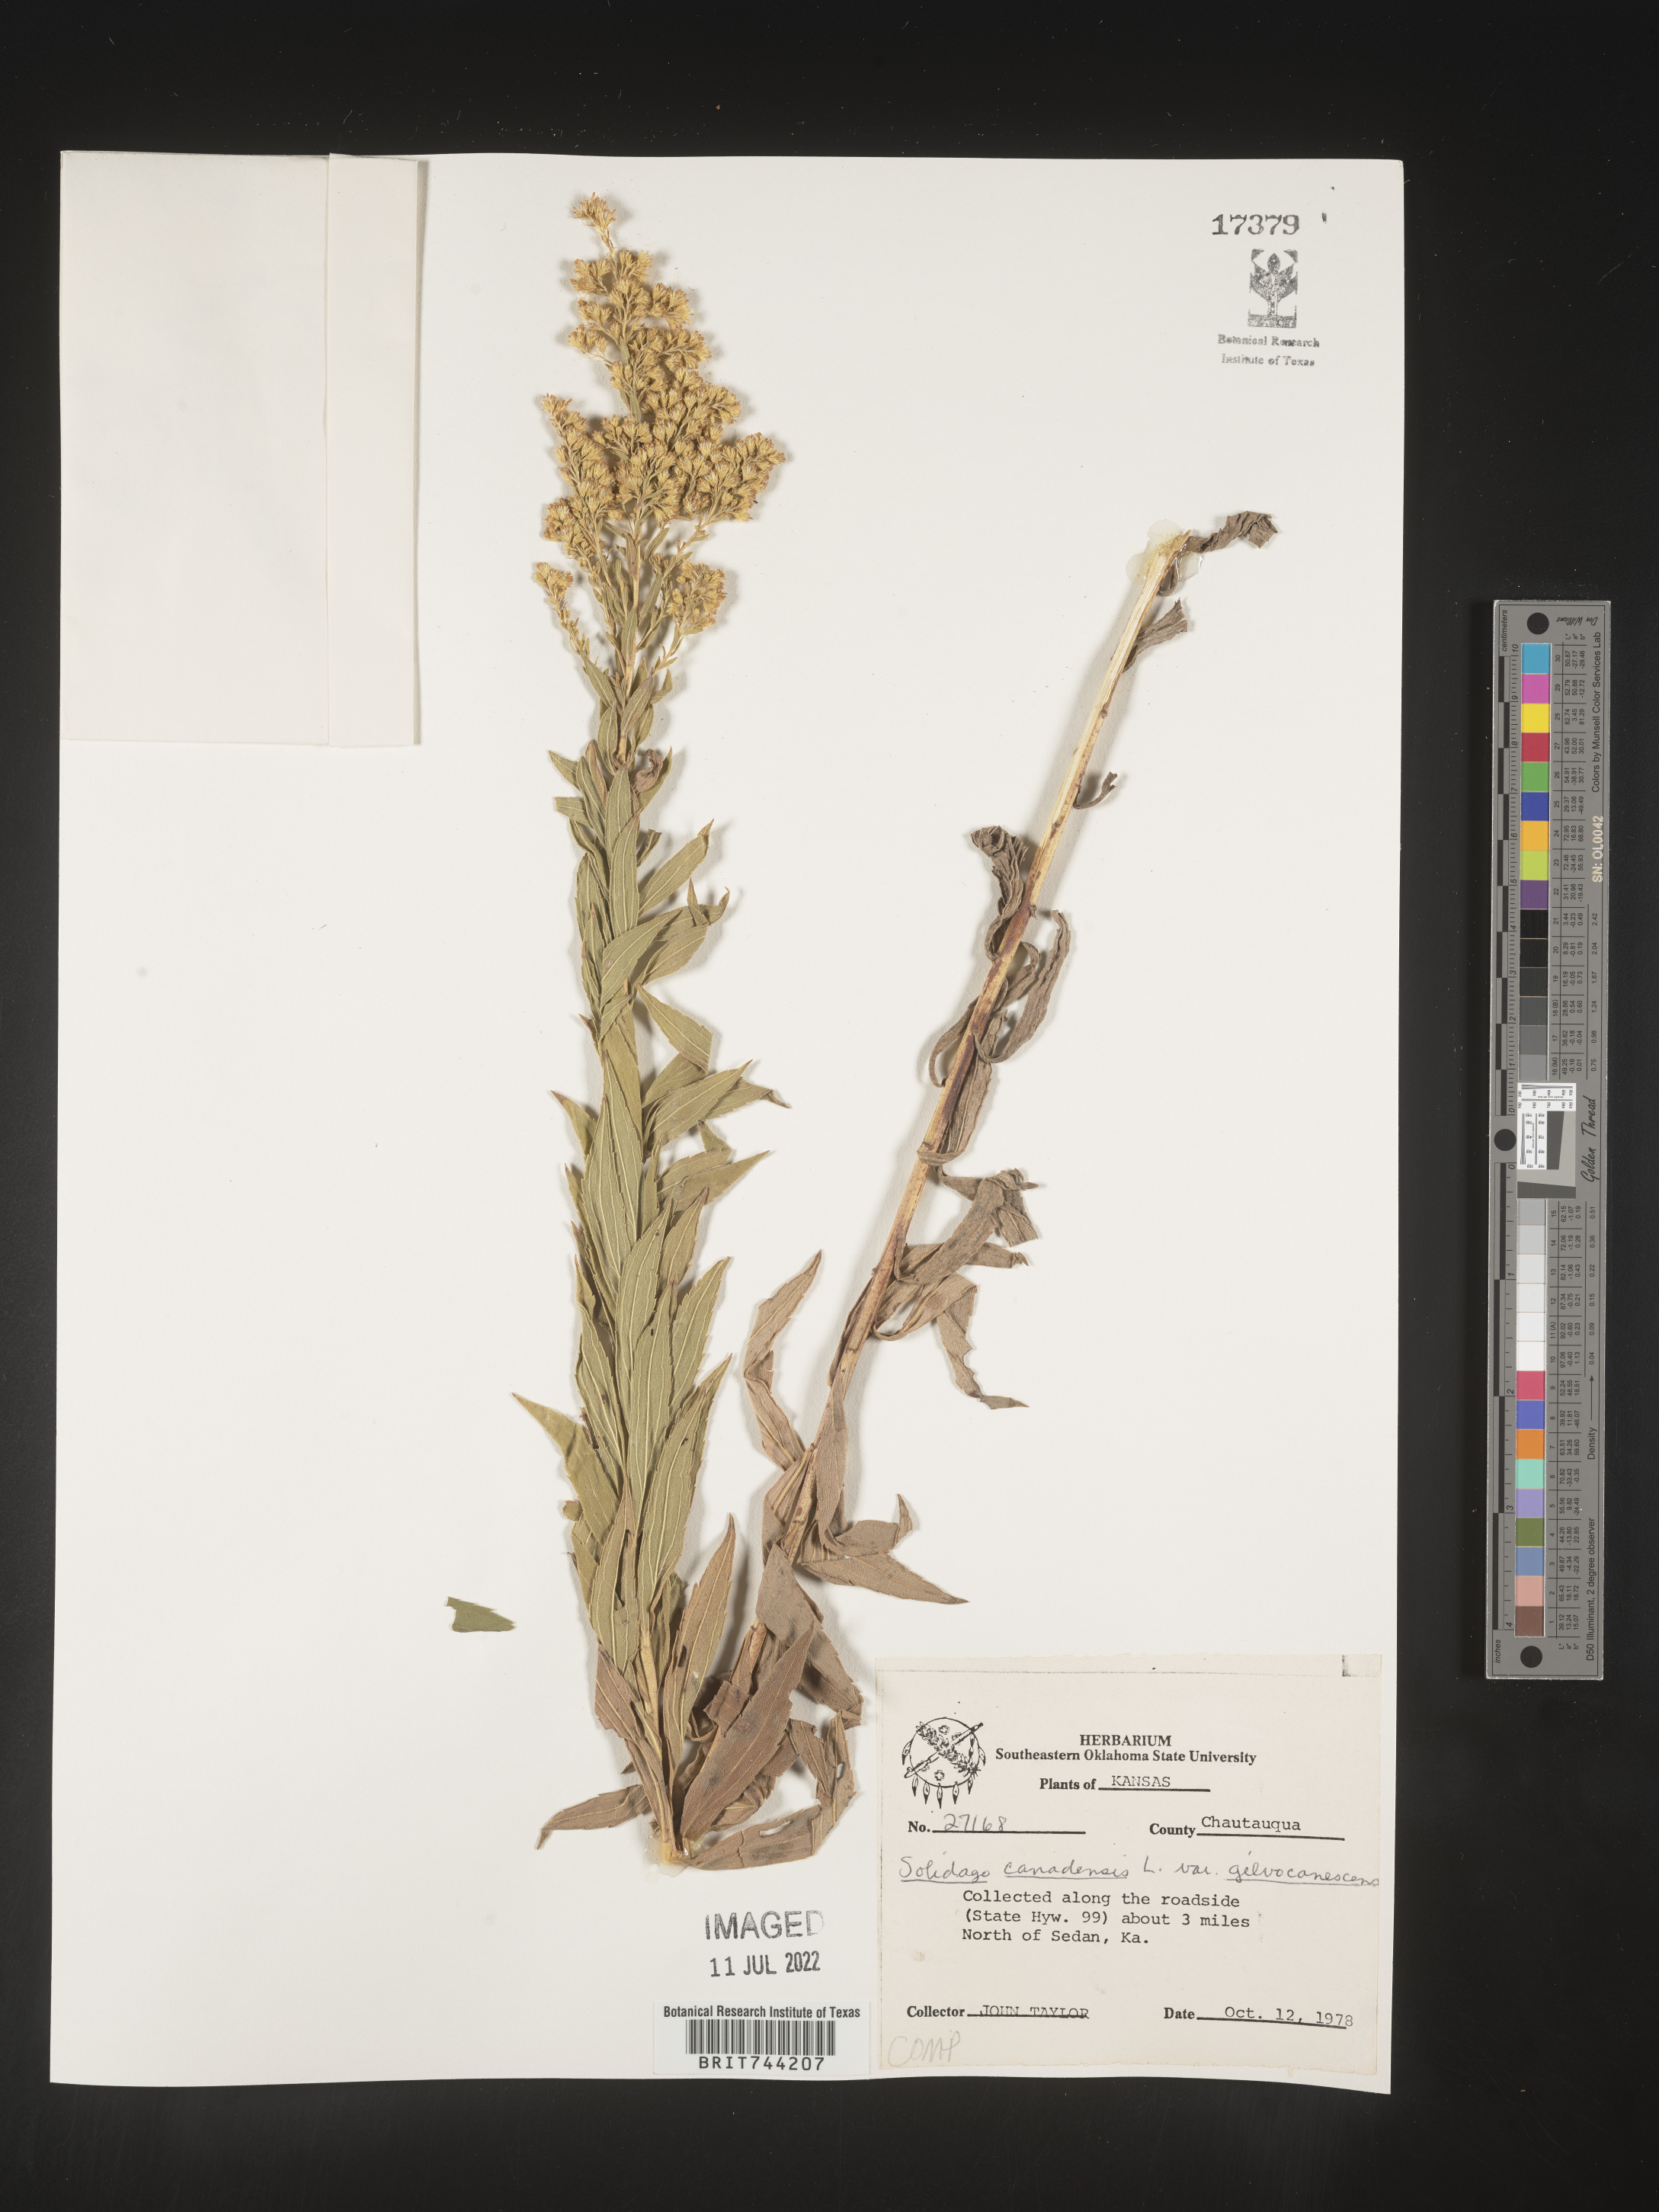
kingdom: Plantae
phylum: Tracheophyta
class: Magnoliopsida
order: Asterales
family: Asteraceae
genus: Solidago
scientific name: Solidago altissima
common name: Late goldenrod
